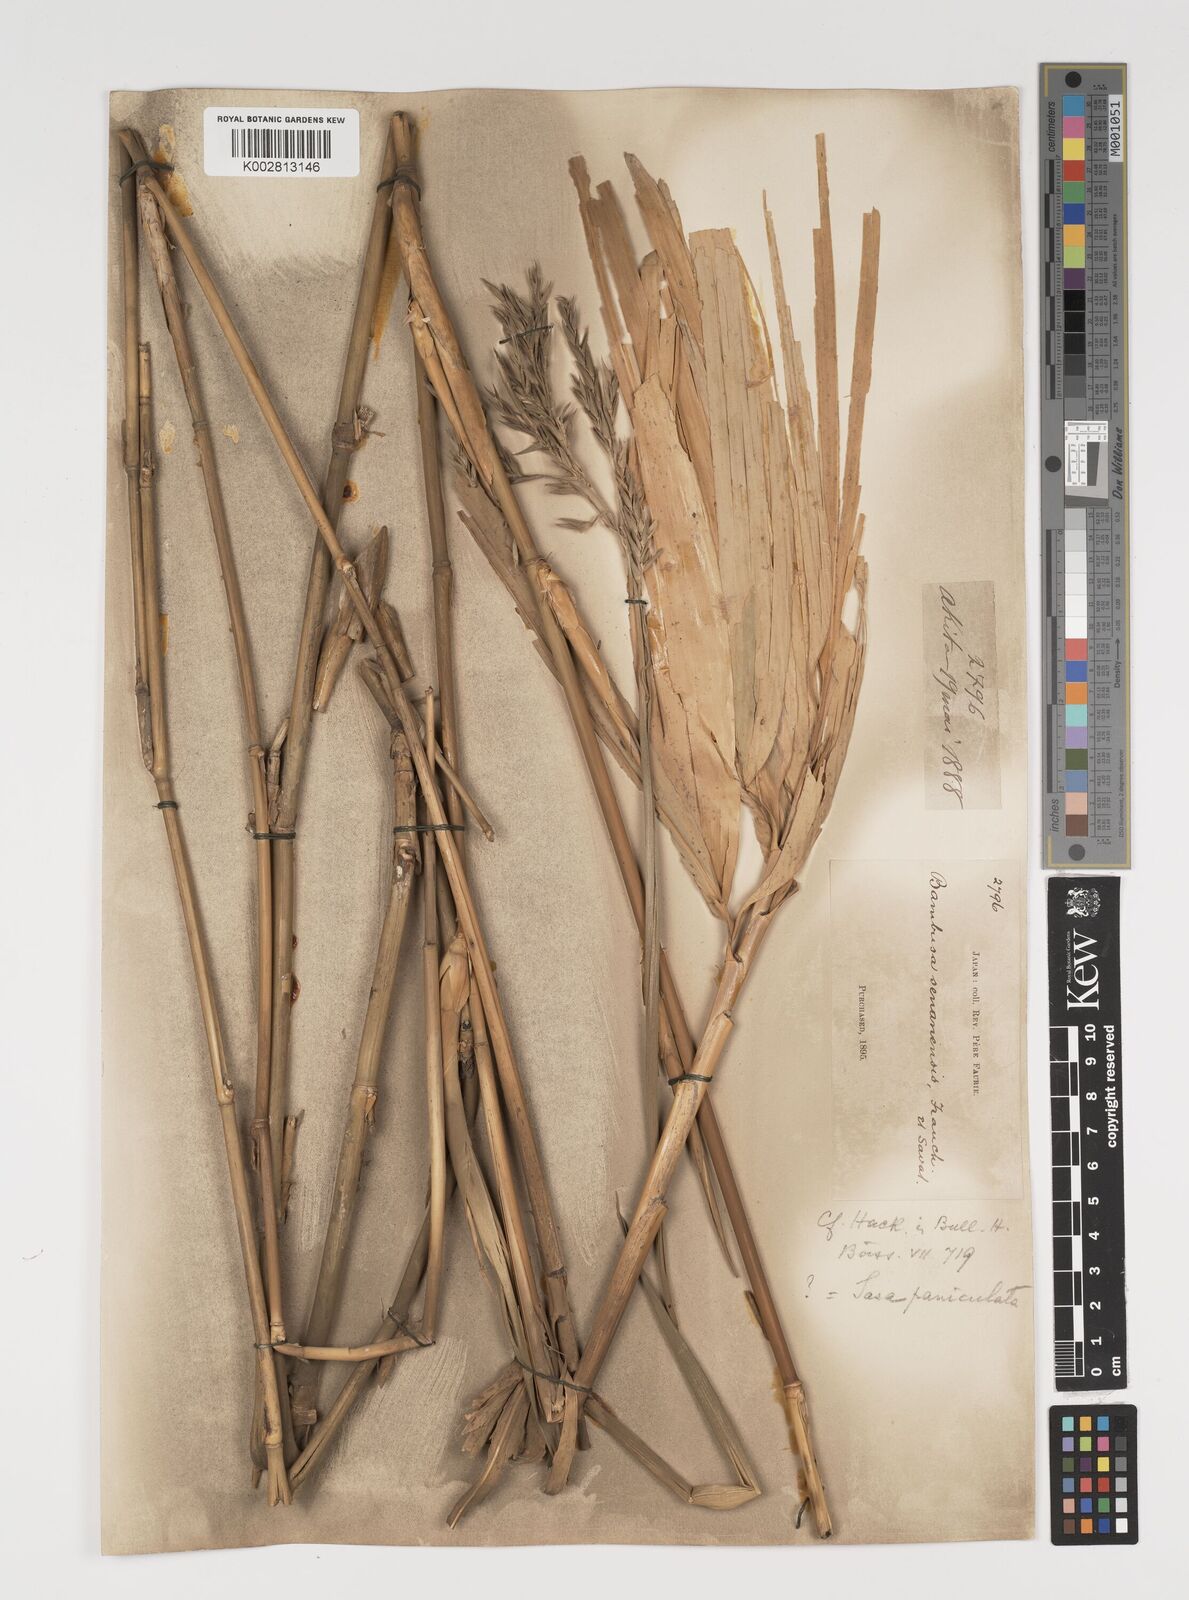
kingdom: Plantae
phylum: Tracheophyta
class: Liliopsida
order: Poales
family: Poaceae
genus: Sasa
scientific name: Sasa palmata
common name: Broad-leaved bamboo
